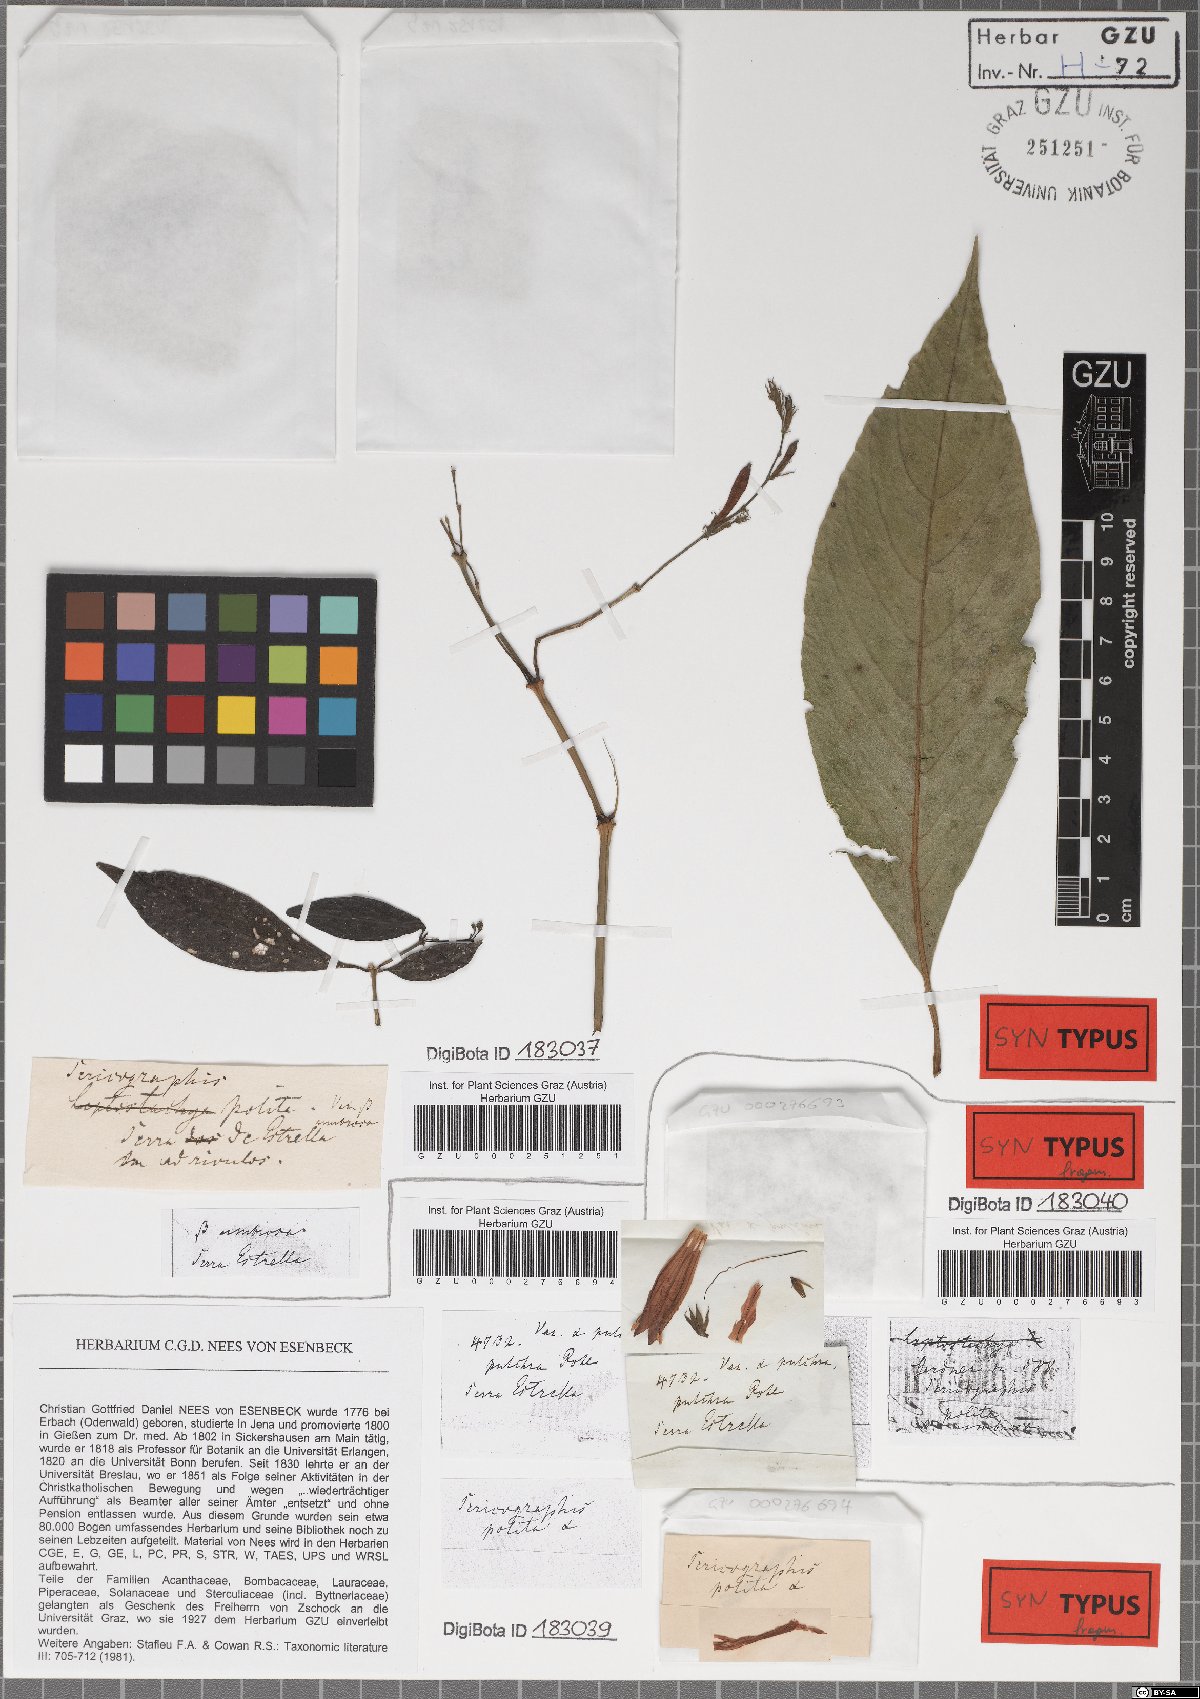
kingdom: Plantae
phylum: Tracheophyta
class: Magnoliopsida
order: Lamiales
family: Acanthaceae
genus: Justicia
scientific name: Justicia polita
